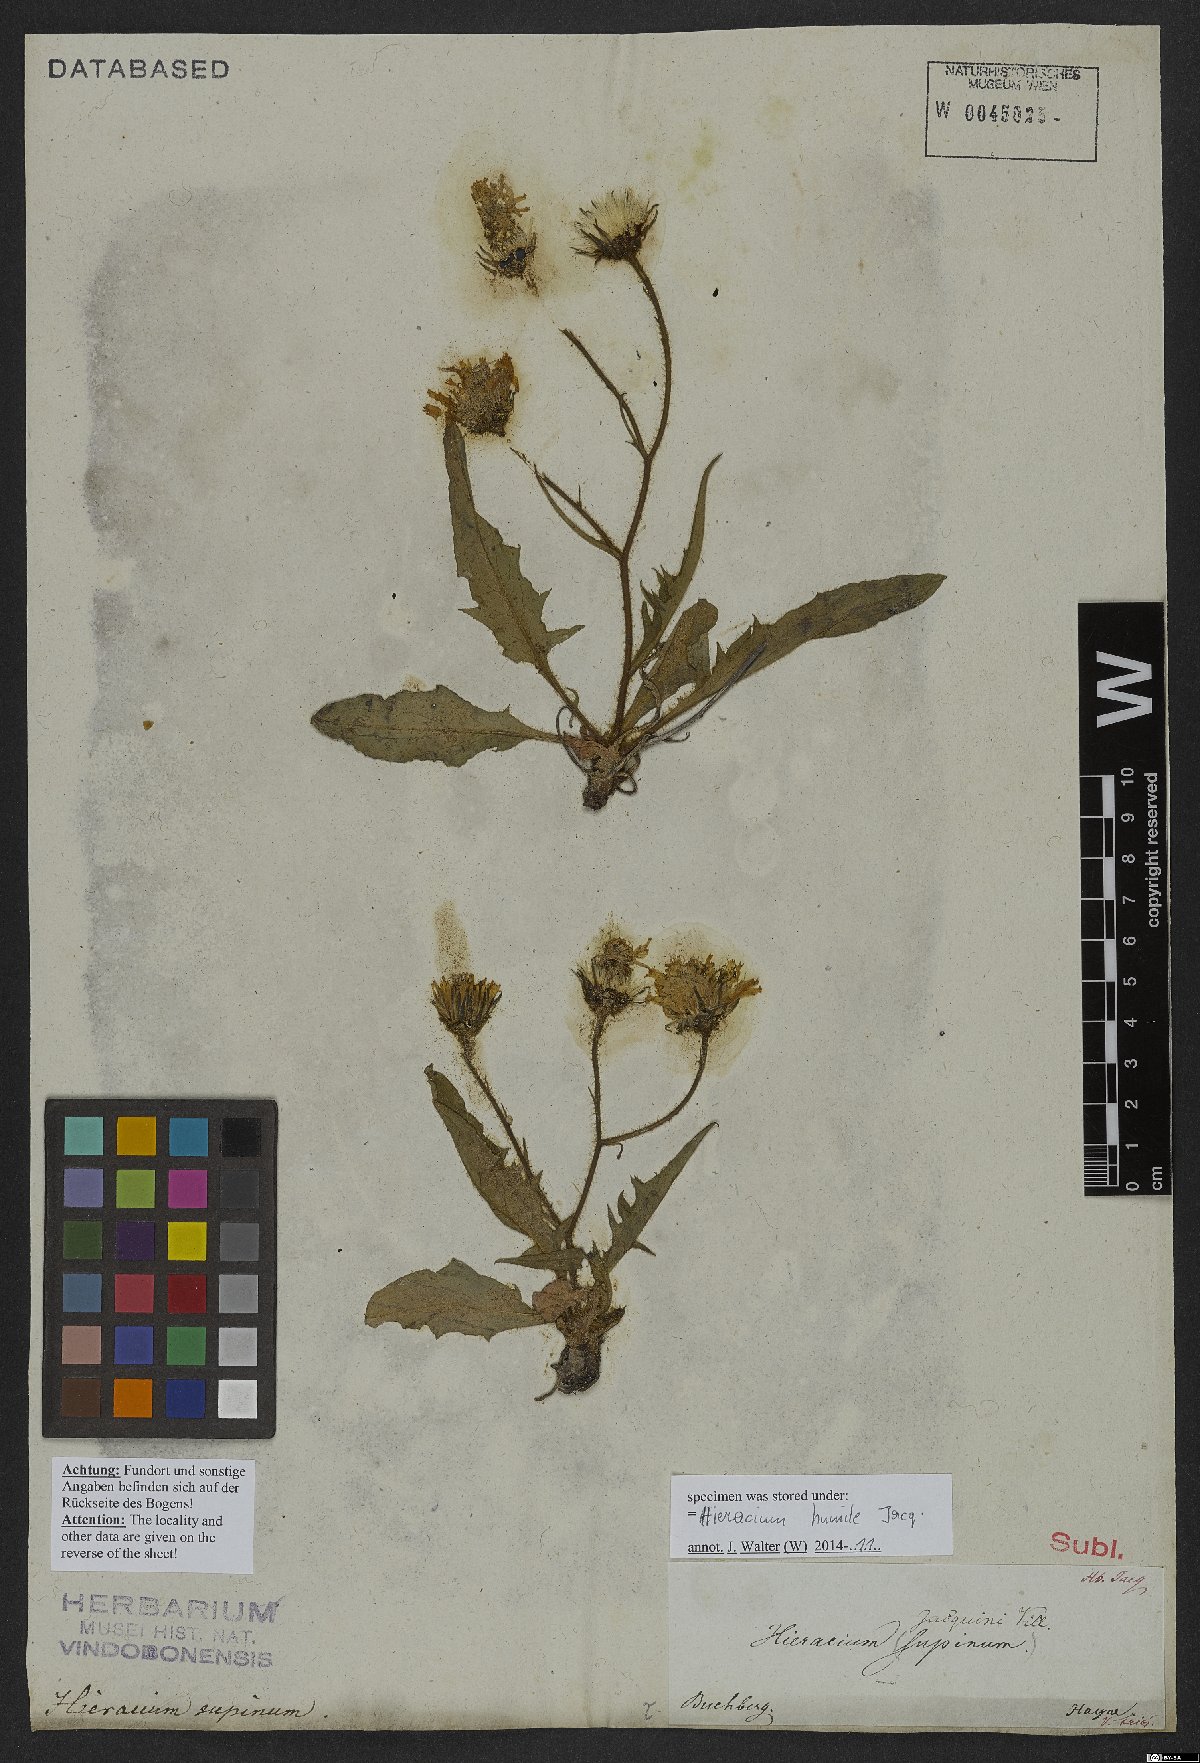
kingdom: Plantae
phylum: Tracheophyta
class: Magnoliopsida
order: Asterales
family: Asteraceae
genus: Hieracium
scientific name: Hieracium humile
